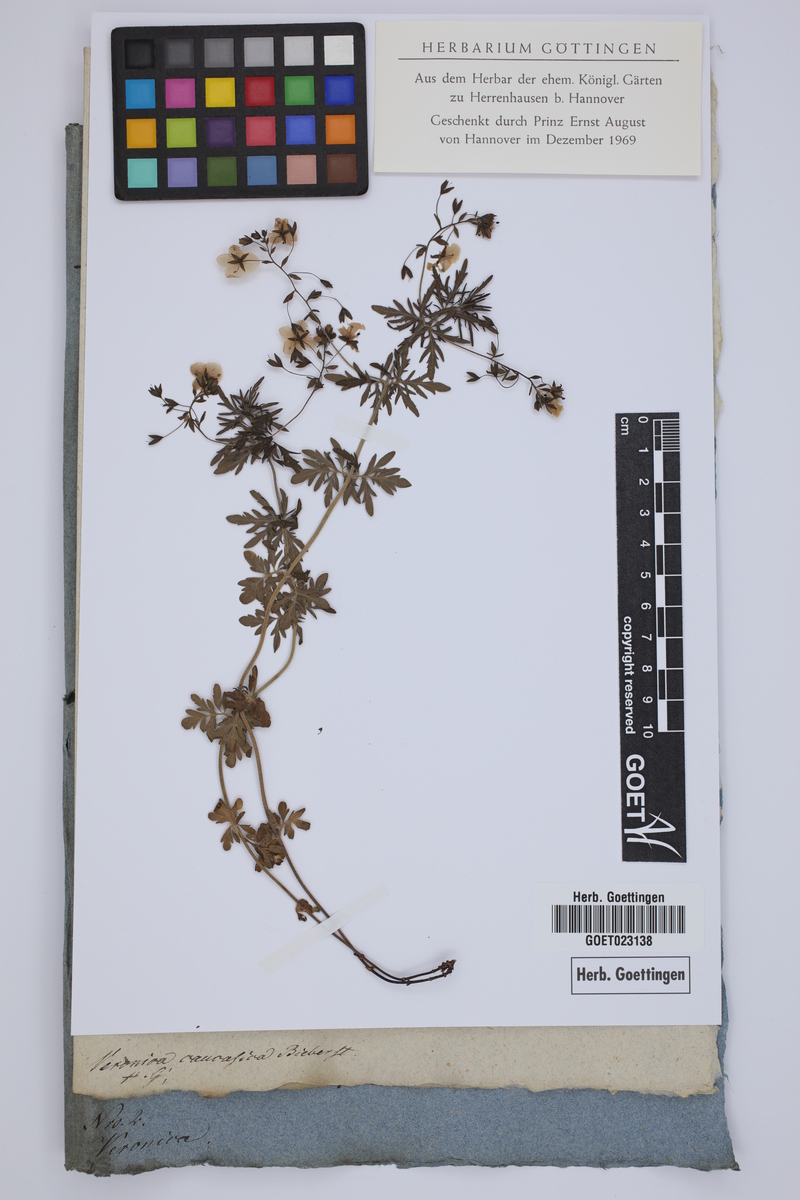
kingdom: Plantae
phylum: Tracheophyta
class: Magnoliopsida
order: Lamiales
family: Plantaginaceae
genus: Veronica
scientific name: Veronica caucasica
